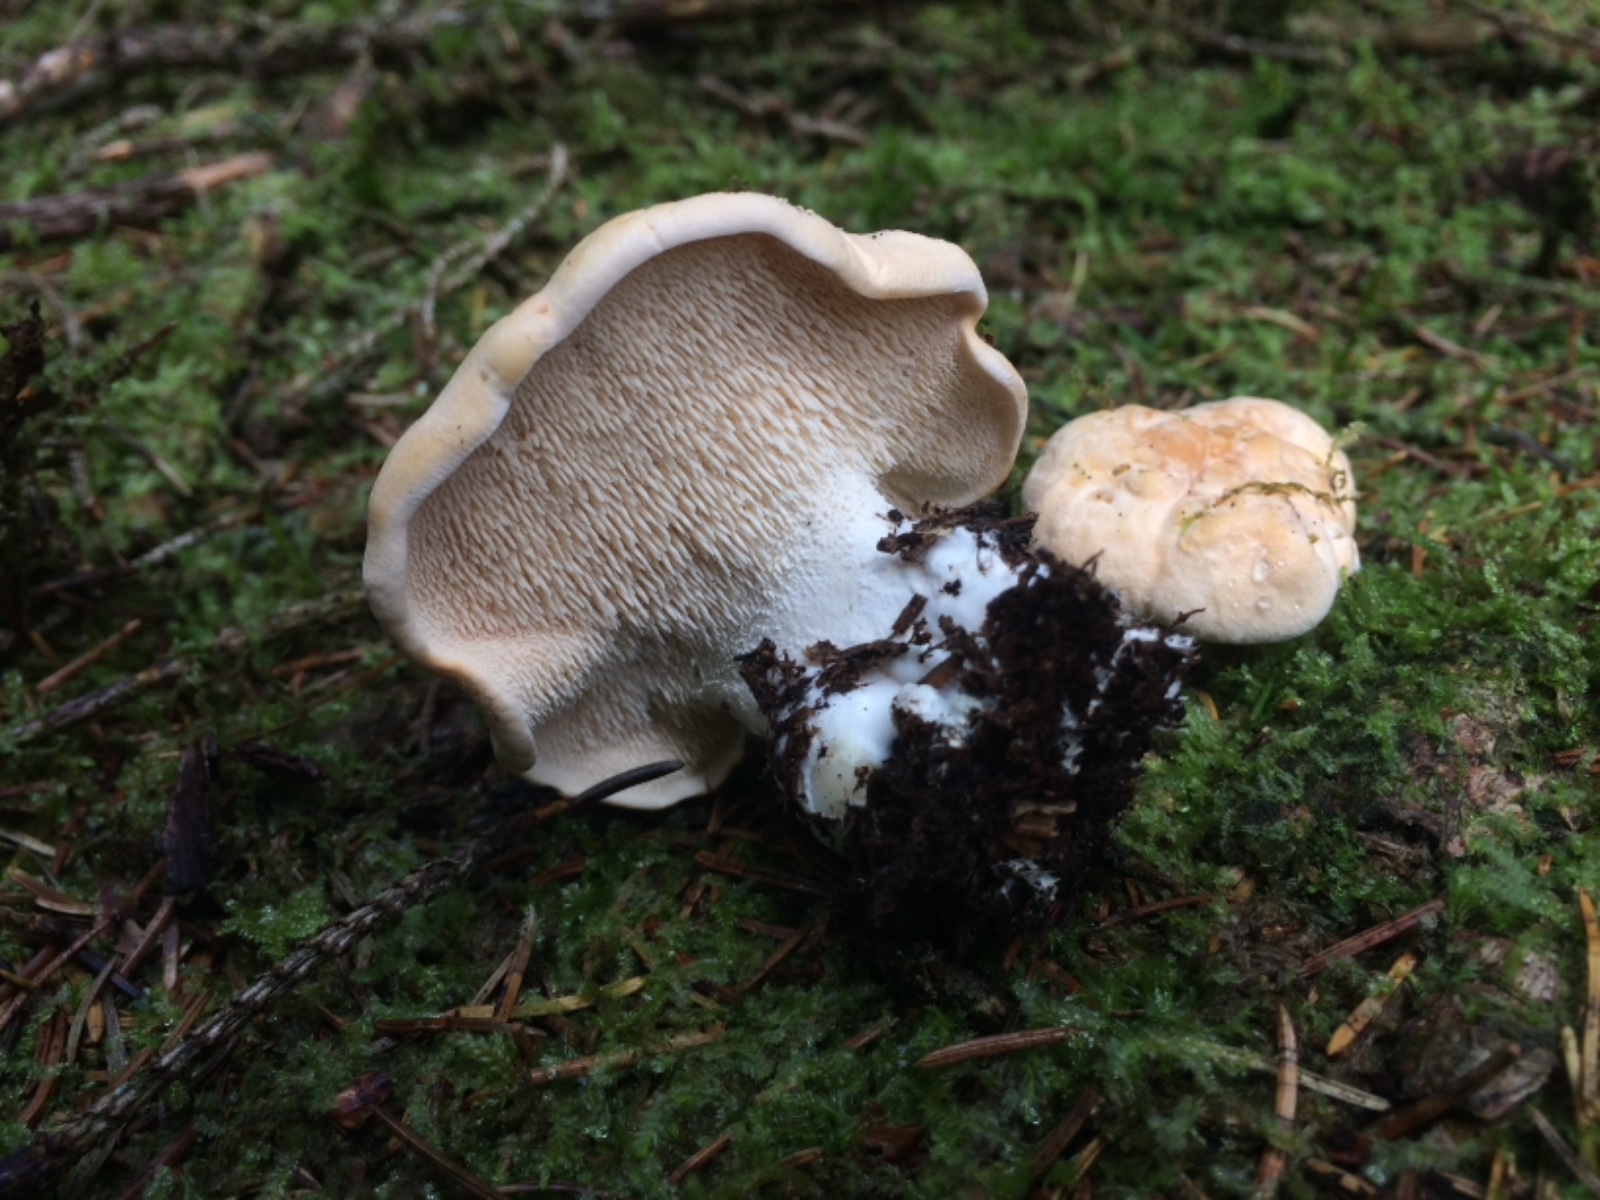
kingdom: Fungi
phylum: Basidiomycota
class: Agaricomycetes
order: Cantharellales
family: Hydnaceae
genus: Hydnum
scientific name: Hydnum repandum
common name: almindelig pigsvamp
